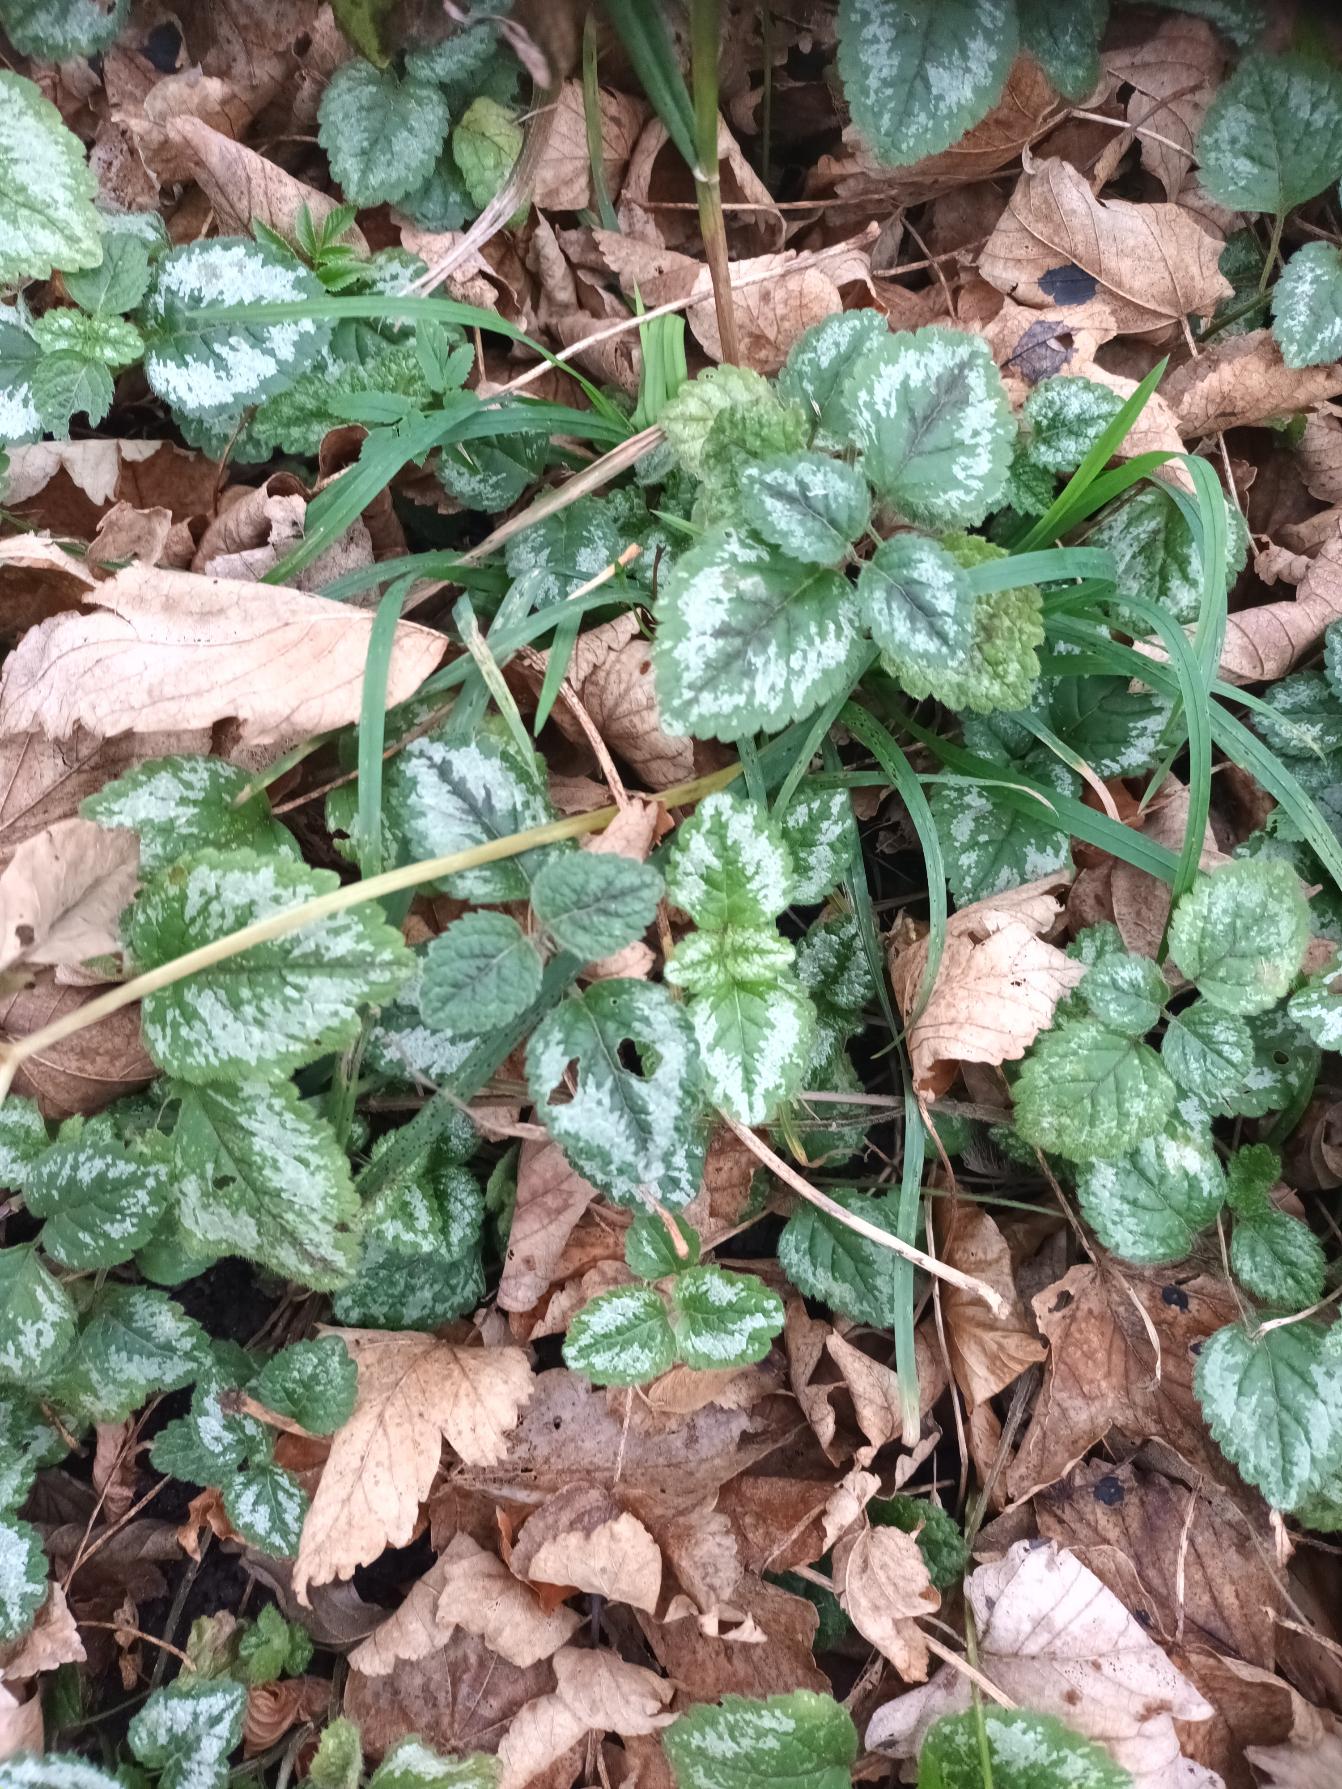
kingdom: Plantae
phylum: Tracheophyta
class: Magnoliopsida
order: Lamiales
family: Lamiaceae
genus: Lamium
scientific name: Lamium galeobdolon
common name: Have-guldnælde
